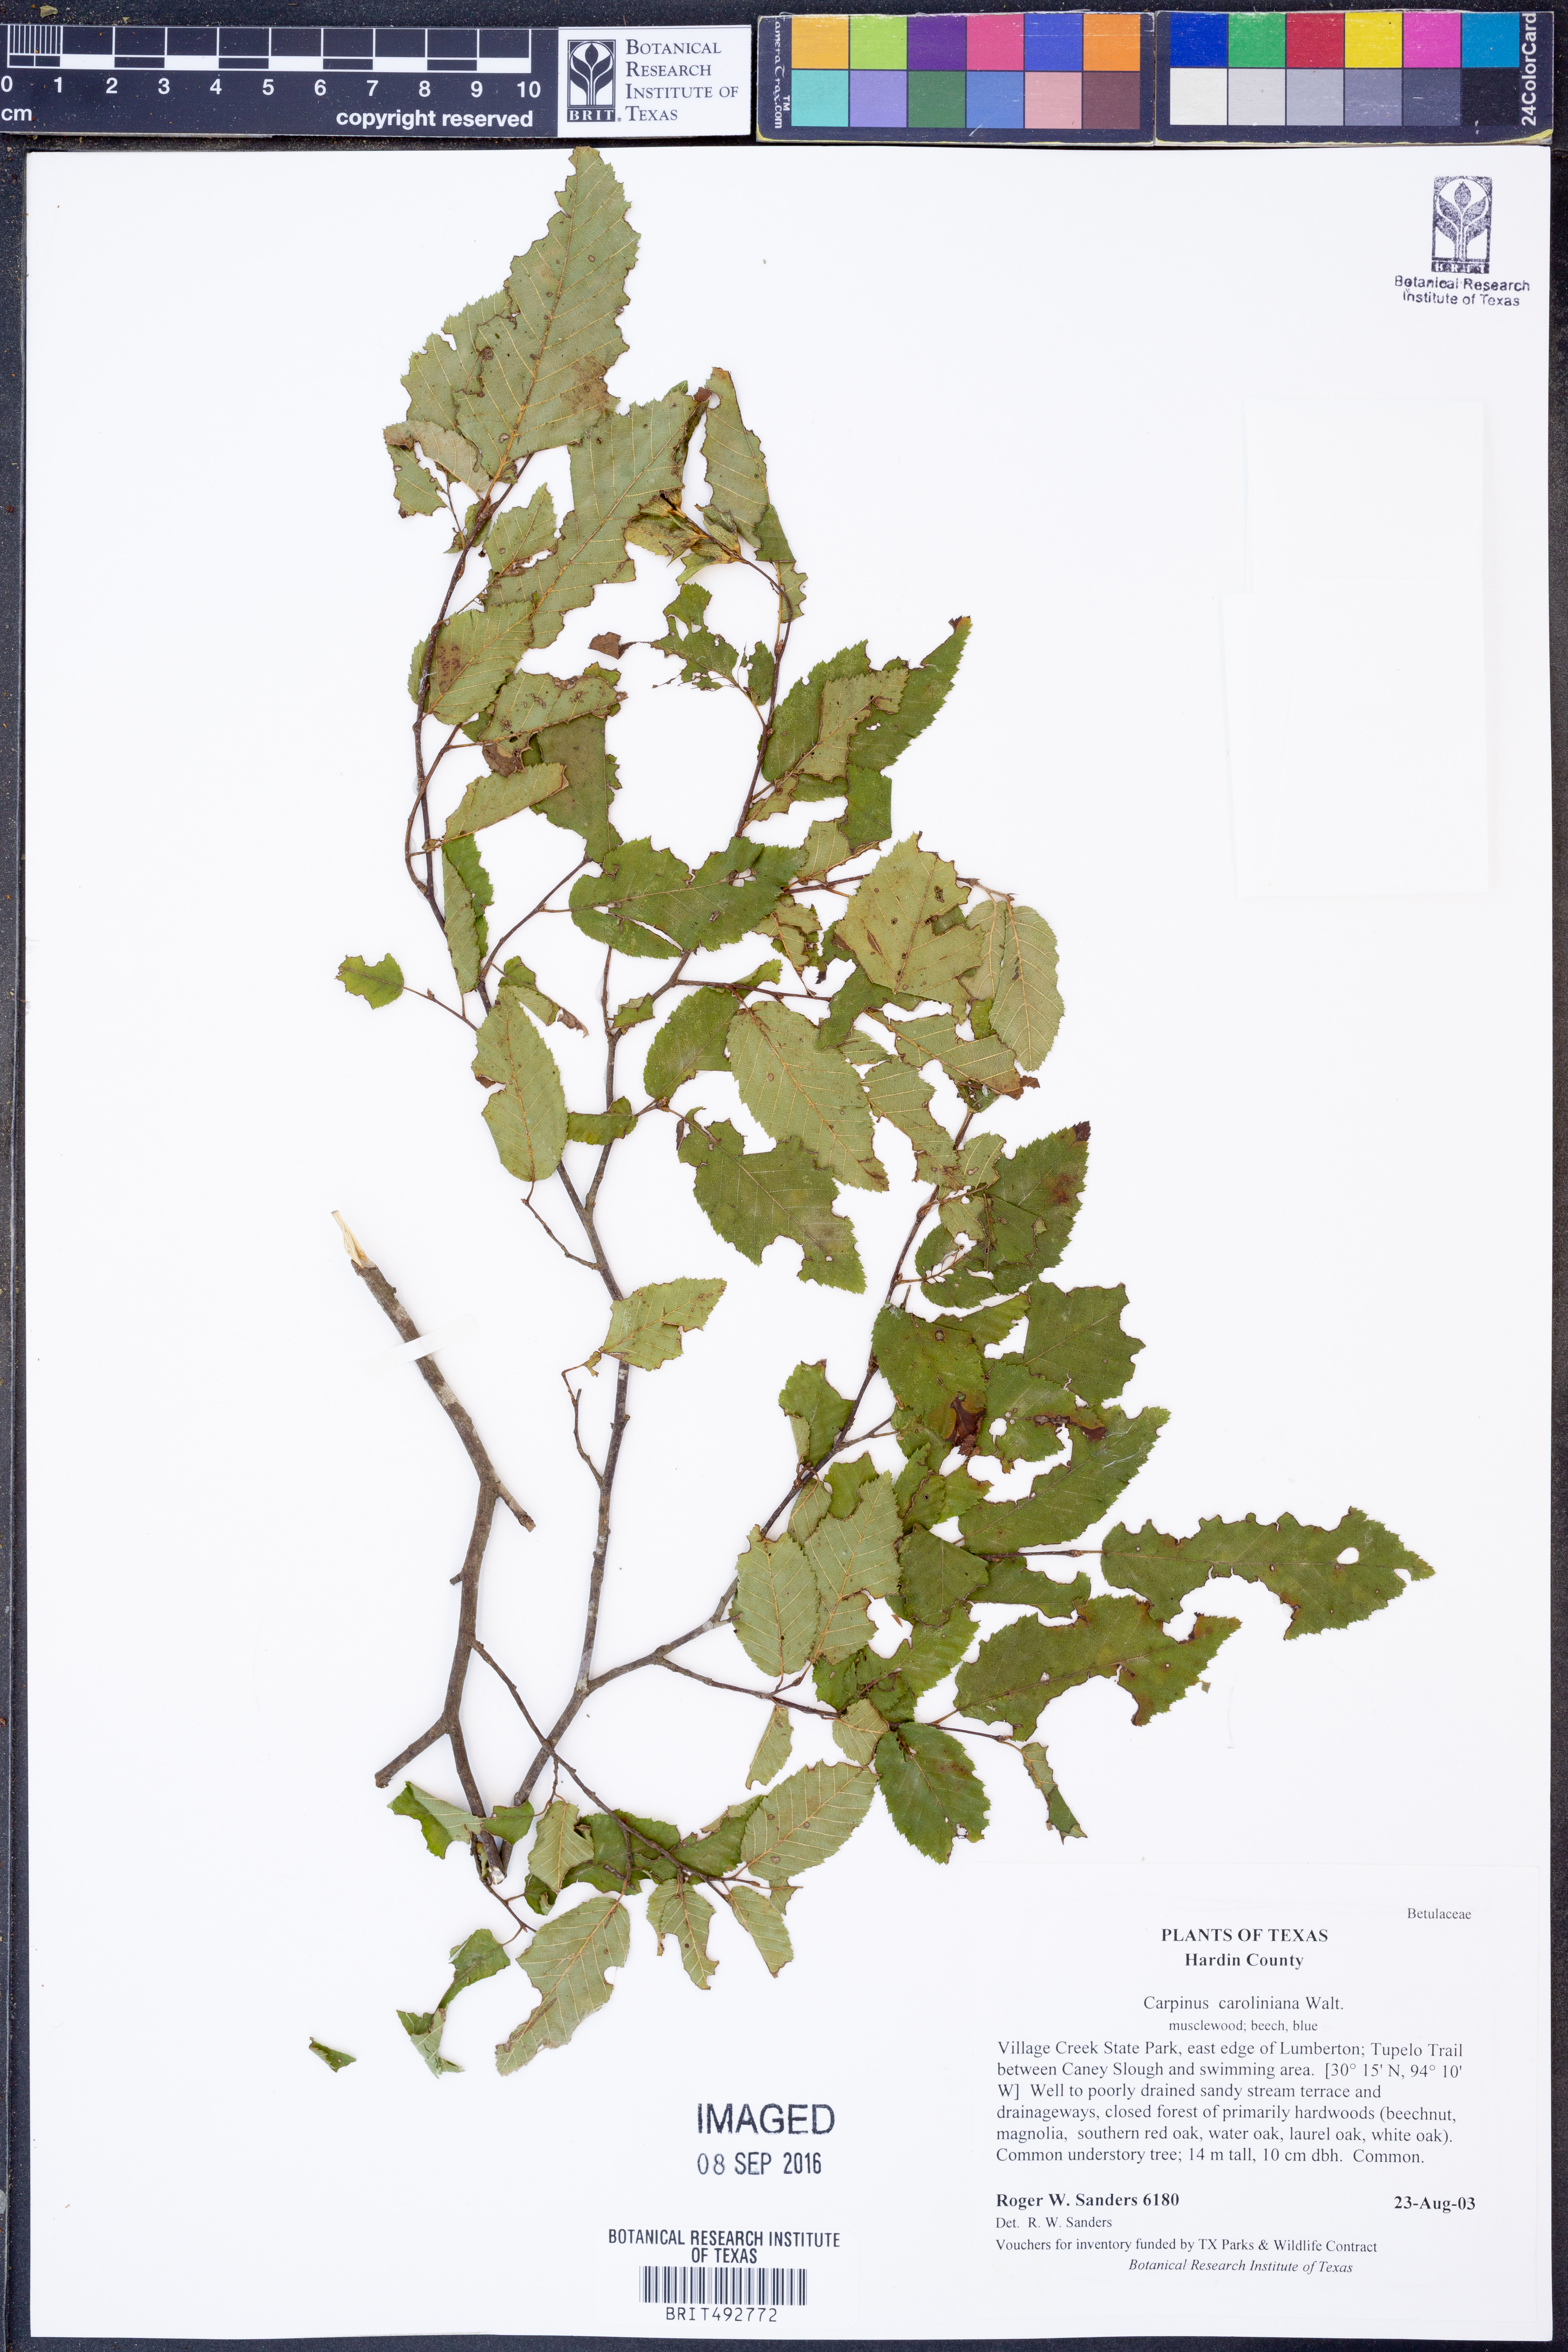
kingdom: Plantae
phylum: Tracheophyta
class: Magnoliopsida
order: Fagales
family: Betulaceae
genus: Carpinus
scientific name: Carpinus caroliniana
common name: American hornbeam
